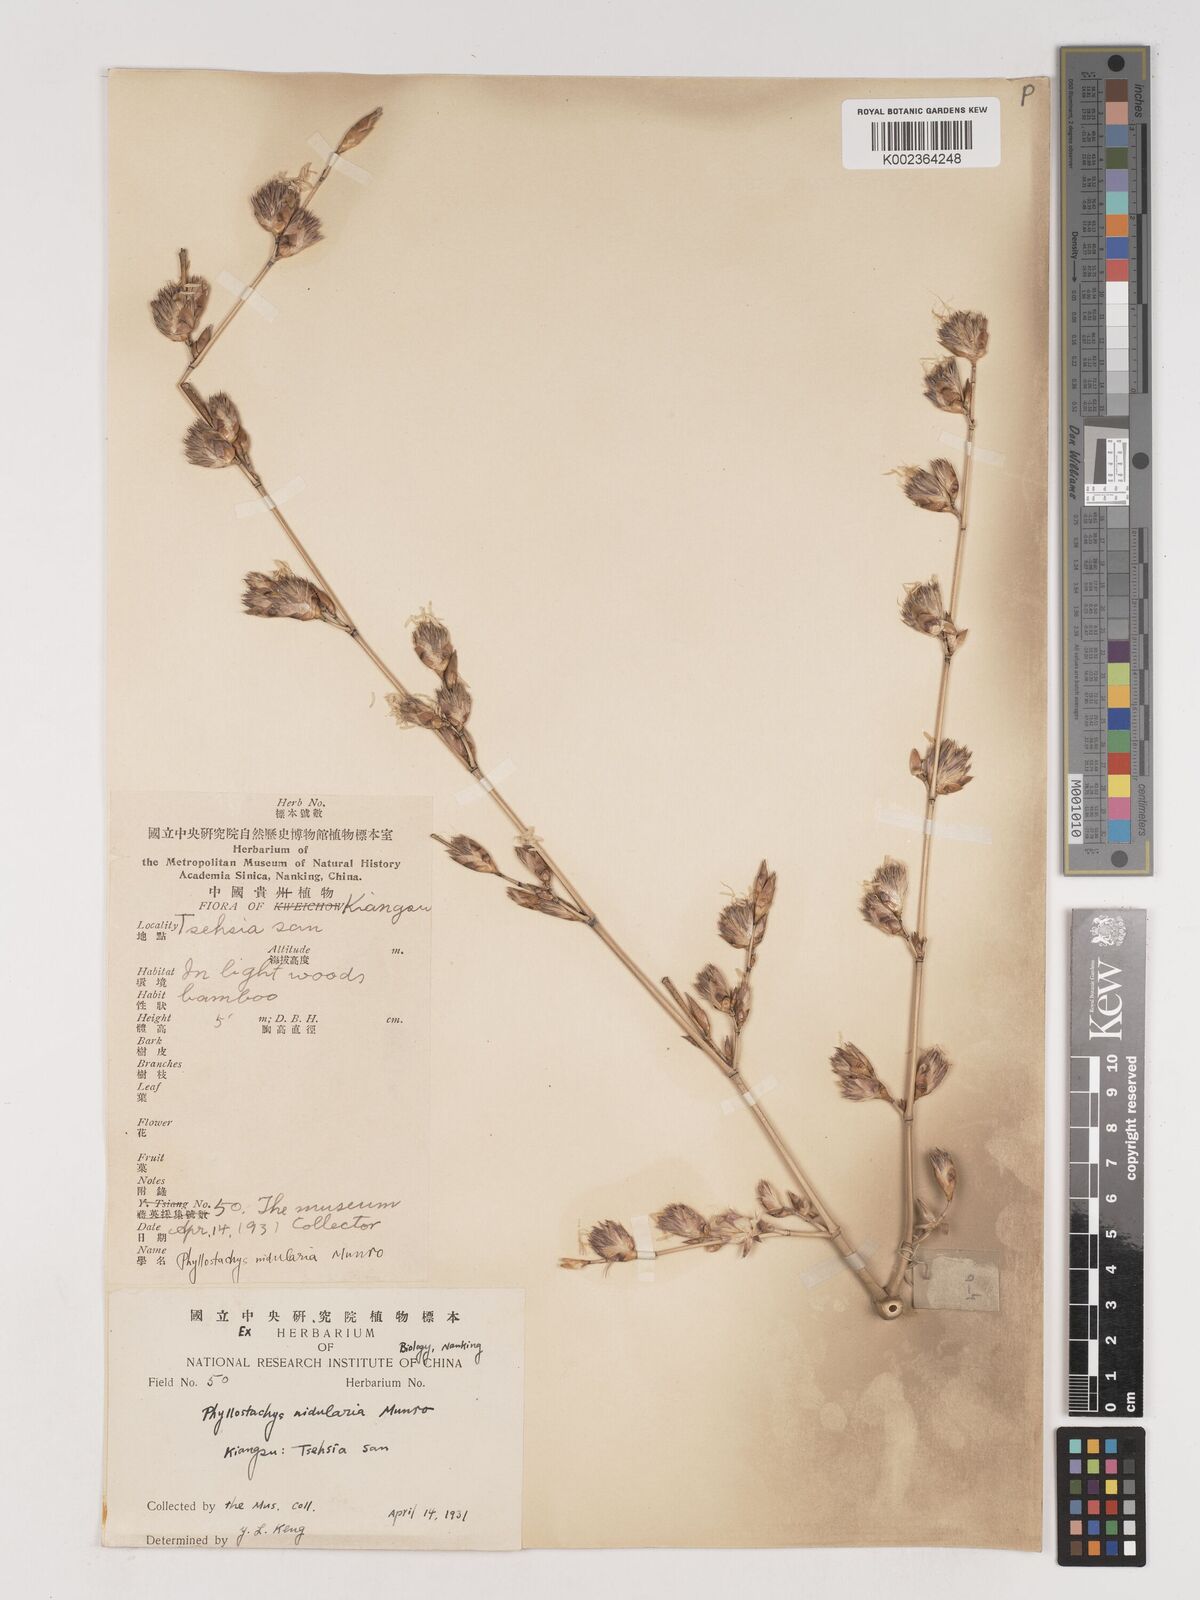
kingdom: Plantae
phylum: Tracheophyta
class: Liliopsida
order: Poales
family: Poaceae
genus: Phyllostachys
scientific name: Phyllostachys nidularia
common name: Broom bamboo
